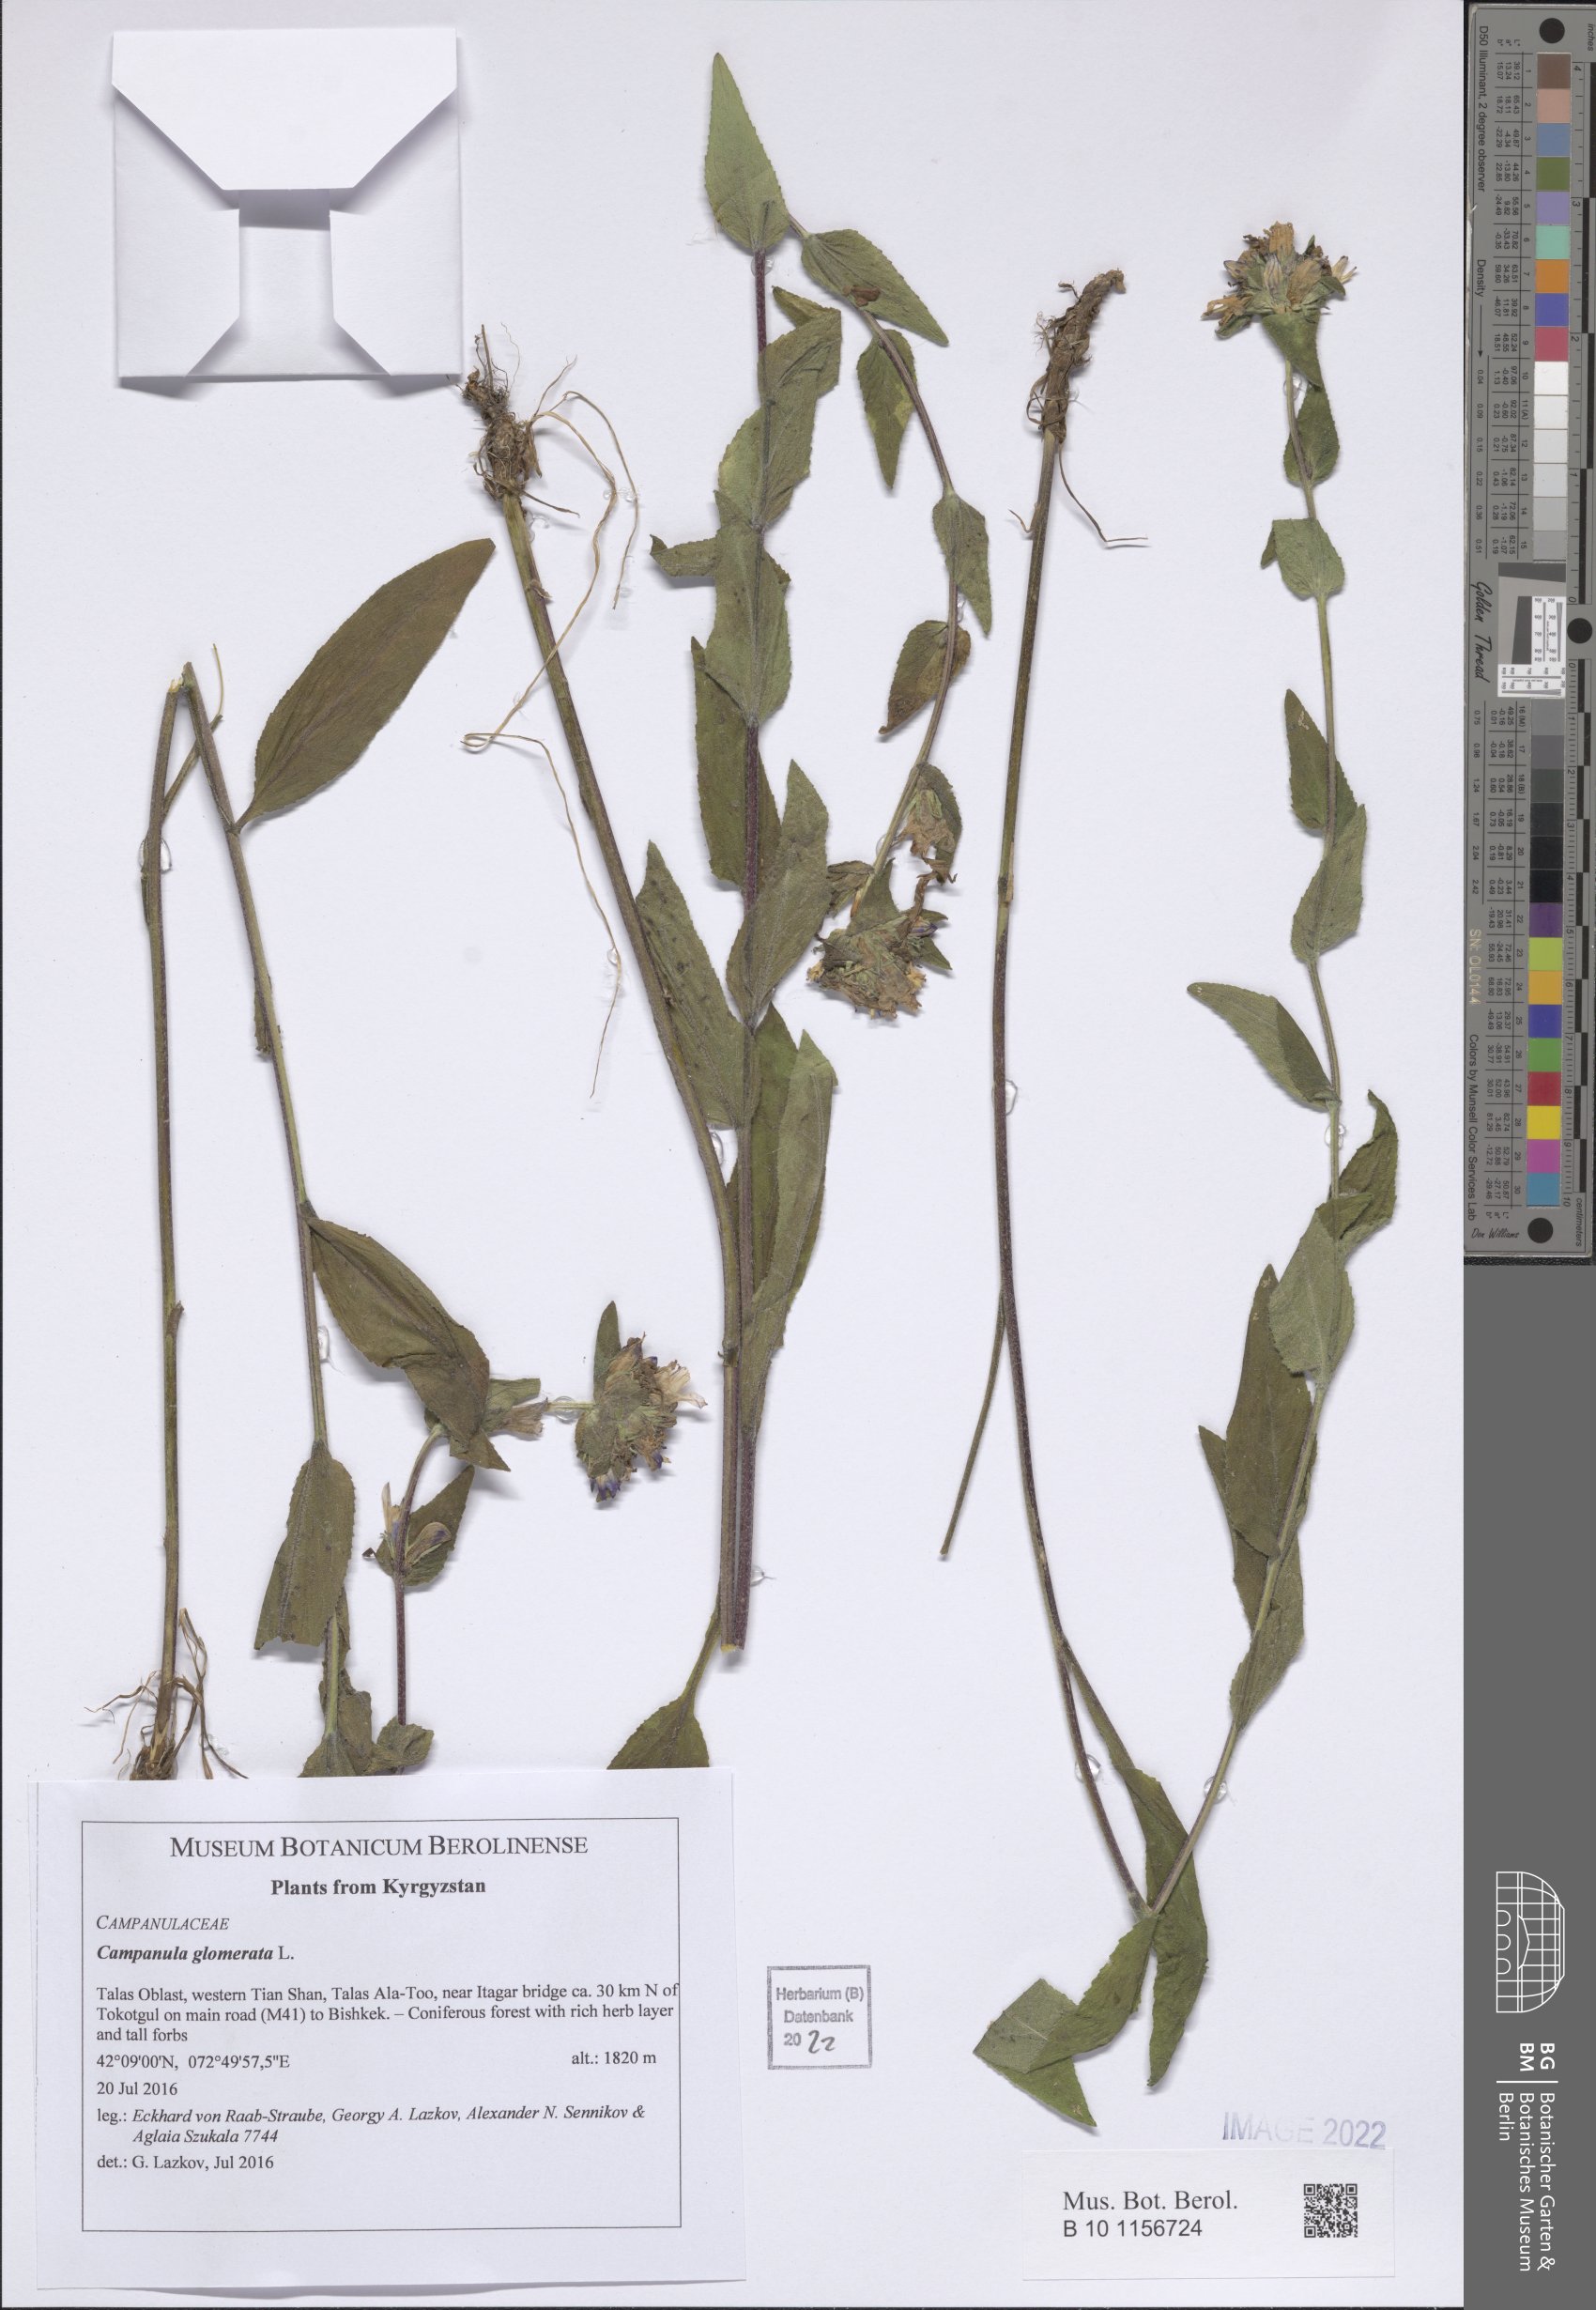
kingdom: Plantae
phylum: Tracheophyta
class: Magnoliopsida
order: Asterales
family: Campanulaceae
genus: Campanula
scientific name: Campanula glomerata
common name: Clustered bellflower
